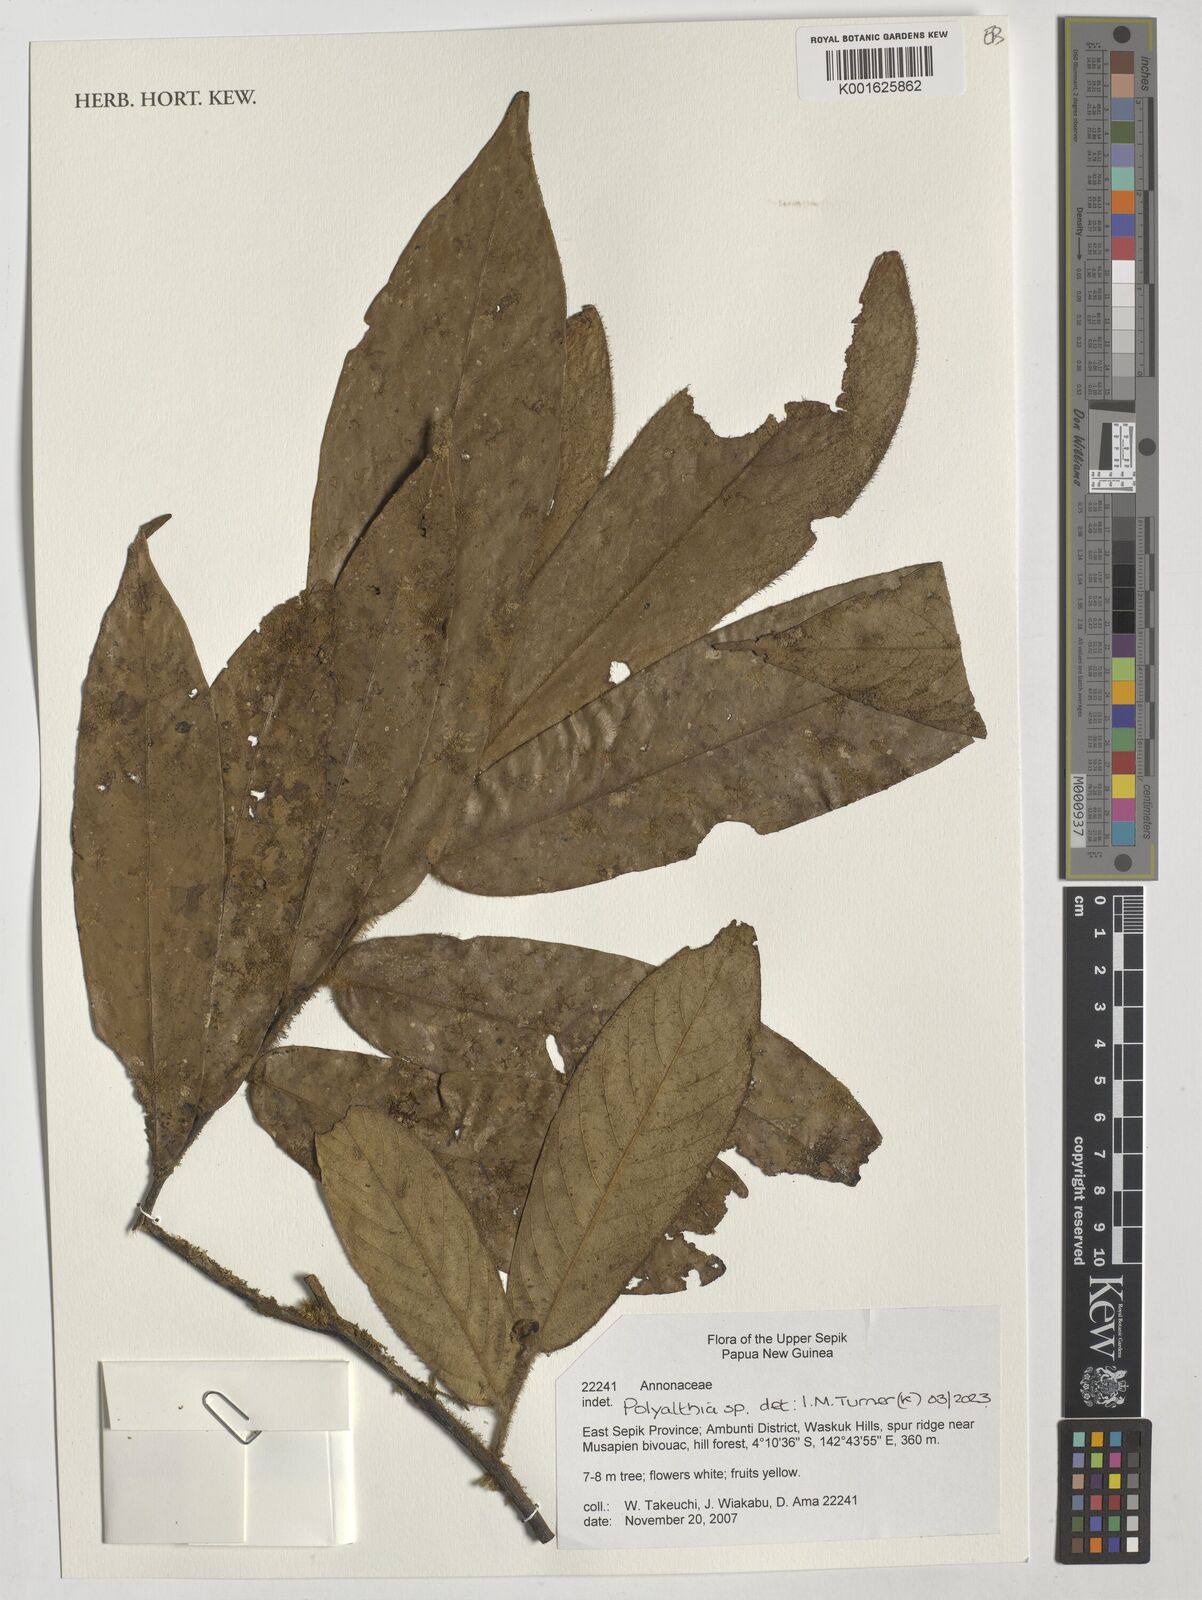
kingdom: Plantae
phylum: Tracheophyta
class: Magnoliopsida
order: Magnoliales
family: Annonaceae
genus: Polyalthia
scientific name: Polyalthia
